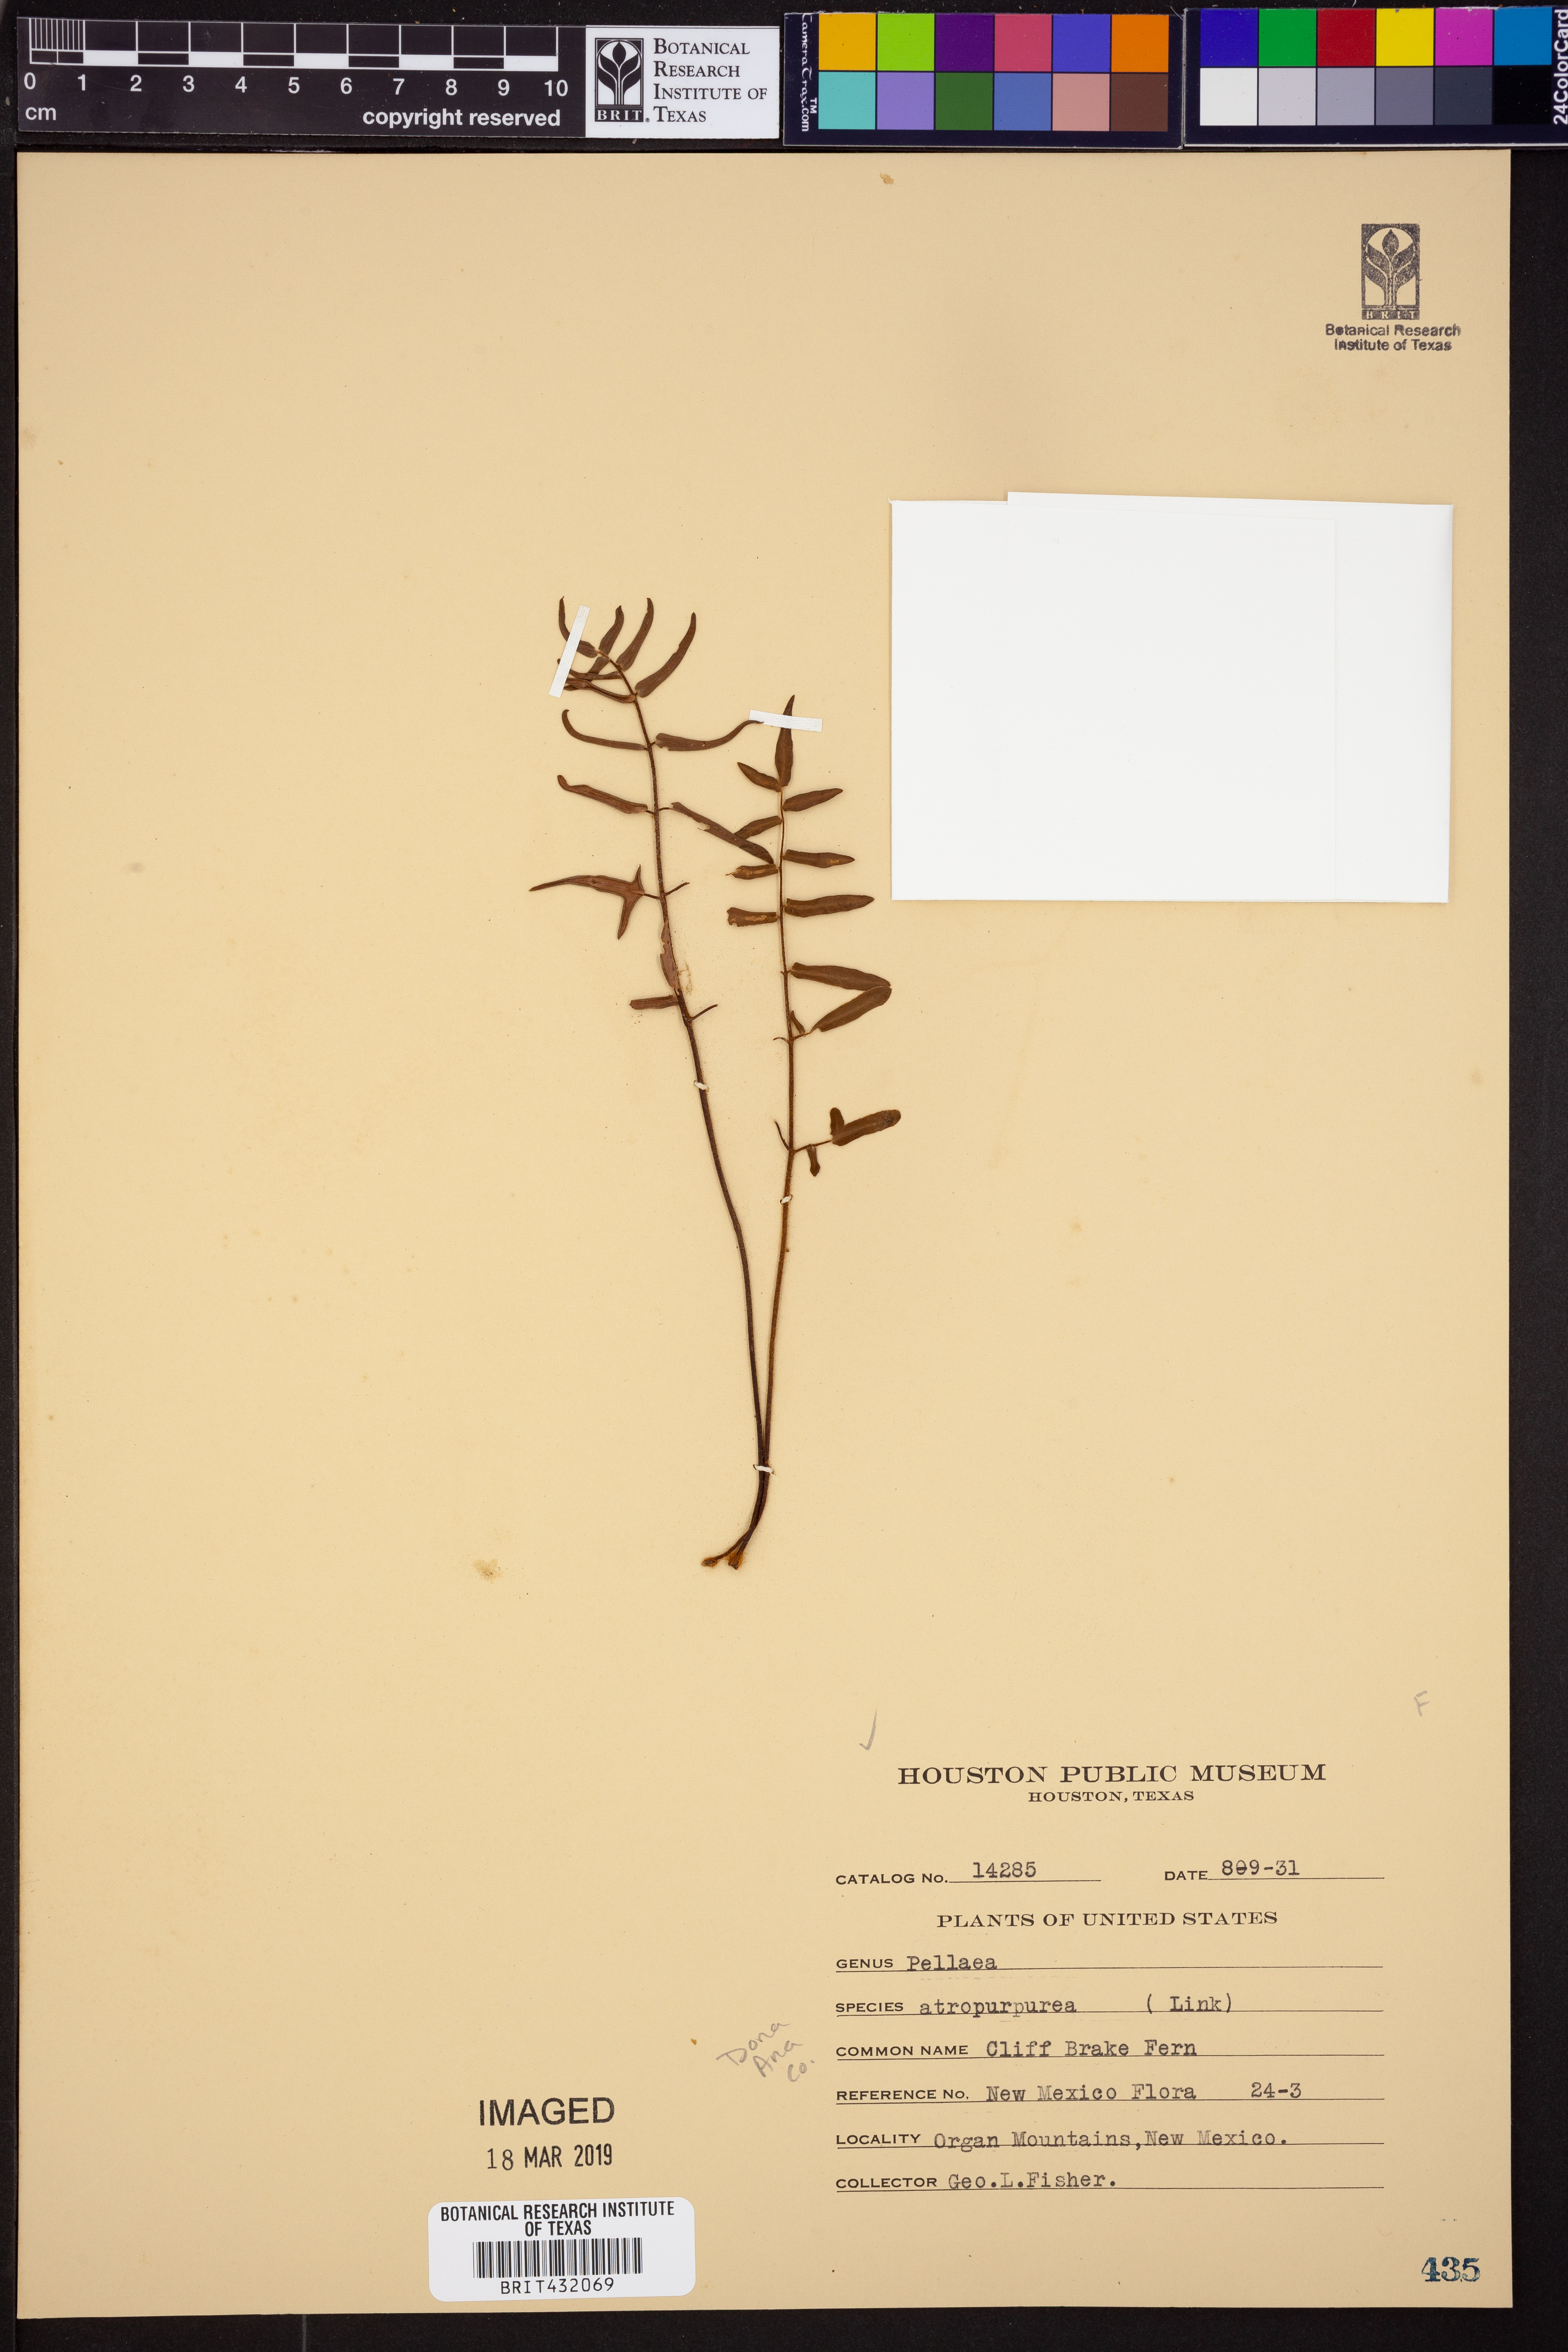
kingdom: Plantae
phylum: Tracheophyta
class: Polypodiopsida
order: Polypodiales
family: Pteridaceae
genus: Pellaea
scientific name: Pellaea atropurpurea
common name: Hairy cliffbrake
